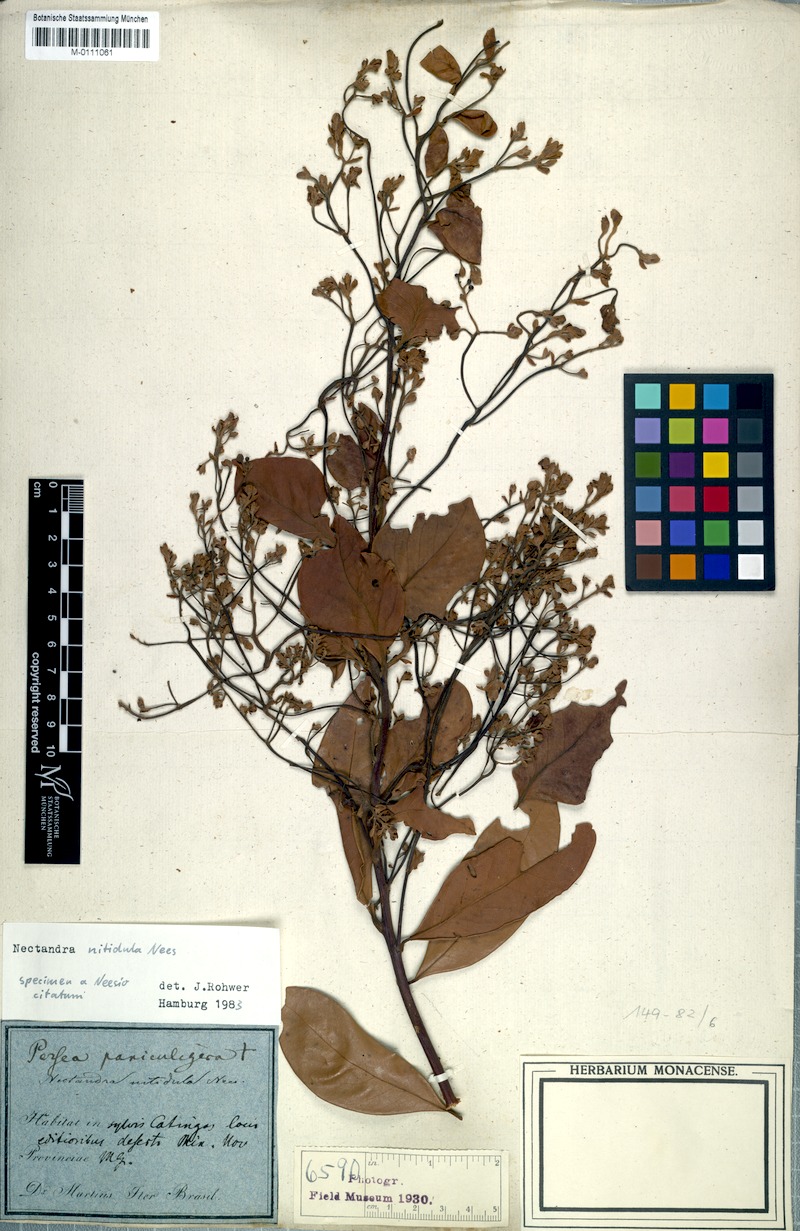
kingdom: Plantae
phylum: Tracheophyta
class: Magnoliopsida
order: Laurales
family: Lauraceae
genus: Nectandra
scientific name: Nectandra nitidula
